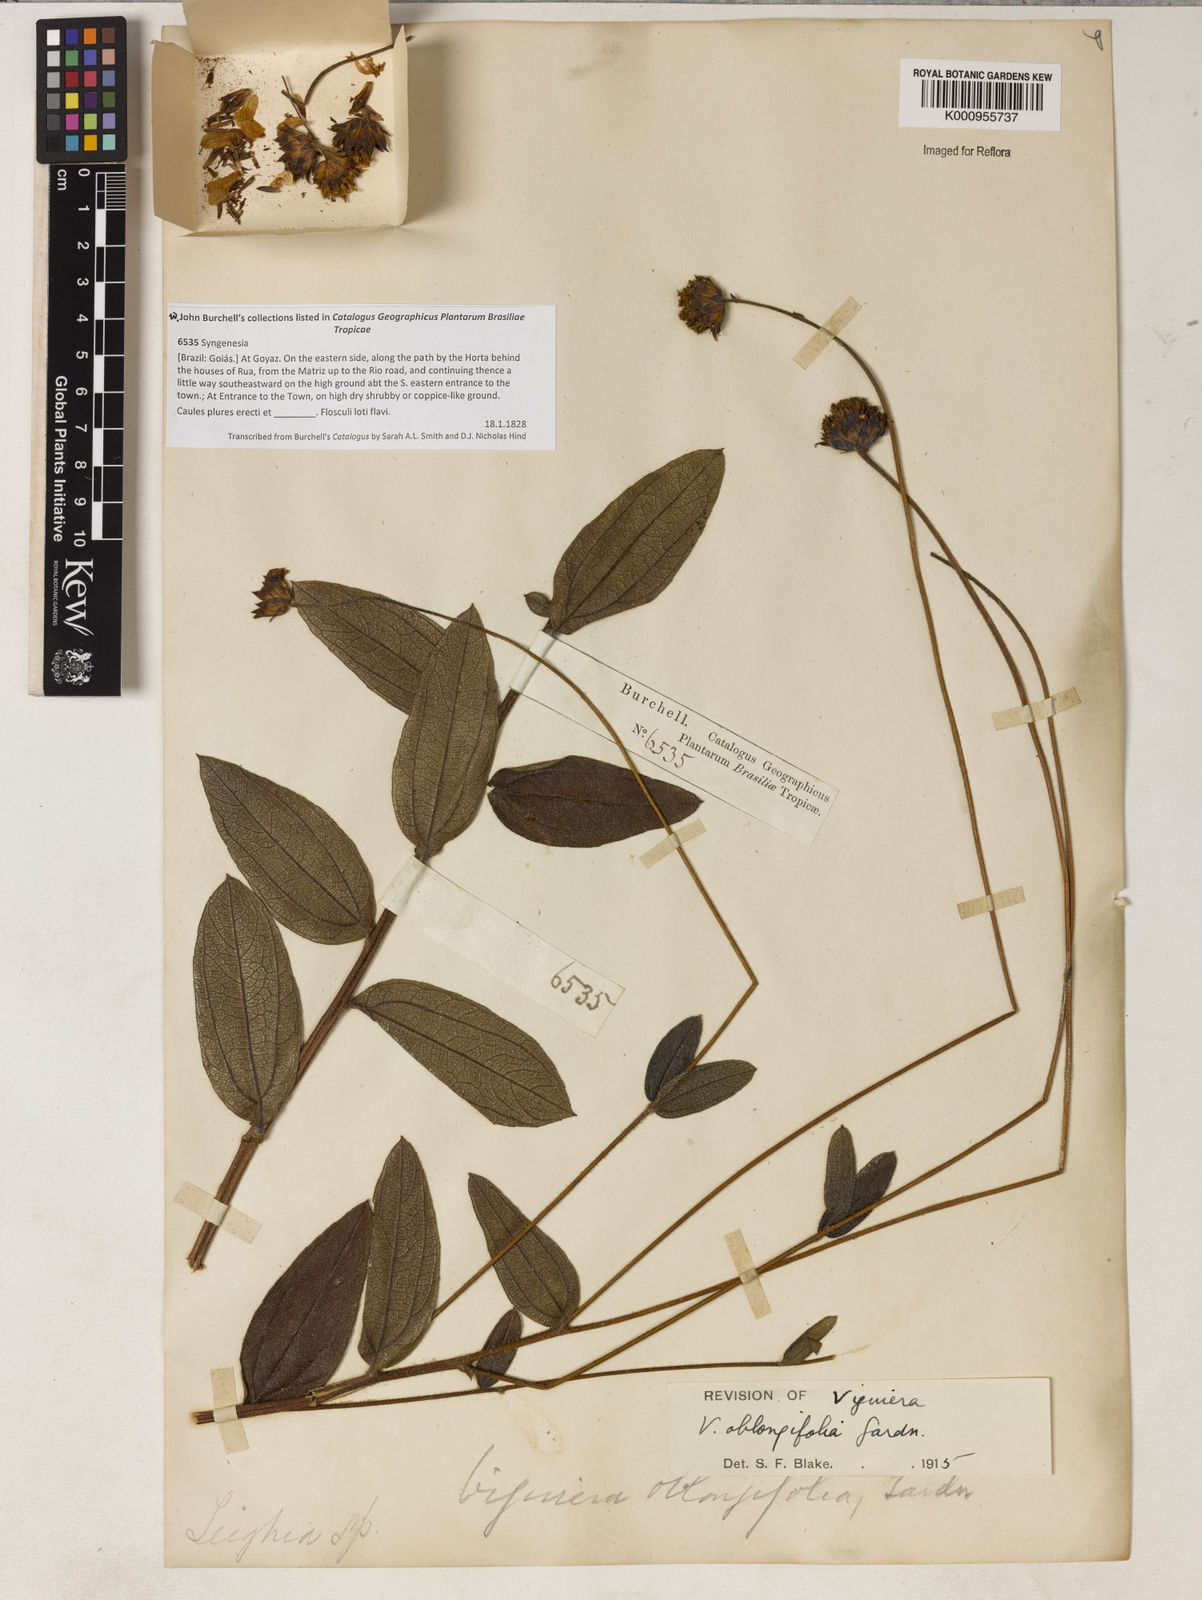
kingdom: Plantae
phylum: Tracheophyta
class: Magnoliopsida
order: Asterales
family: Asteraceae
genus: Aldama
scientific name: Aldama oblongifolia
